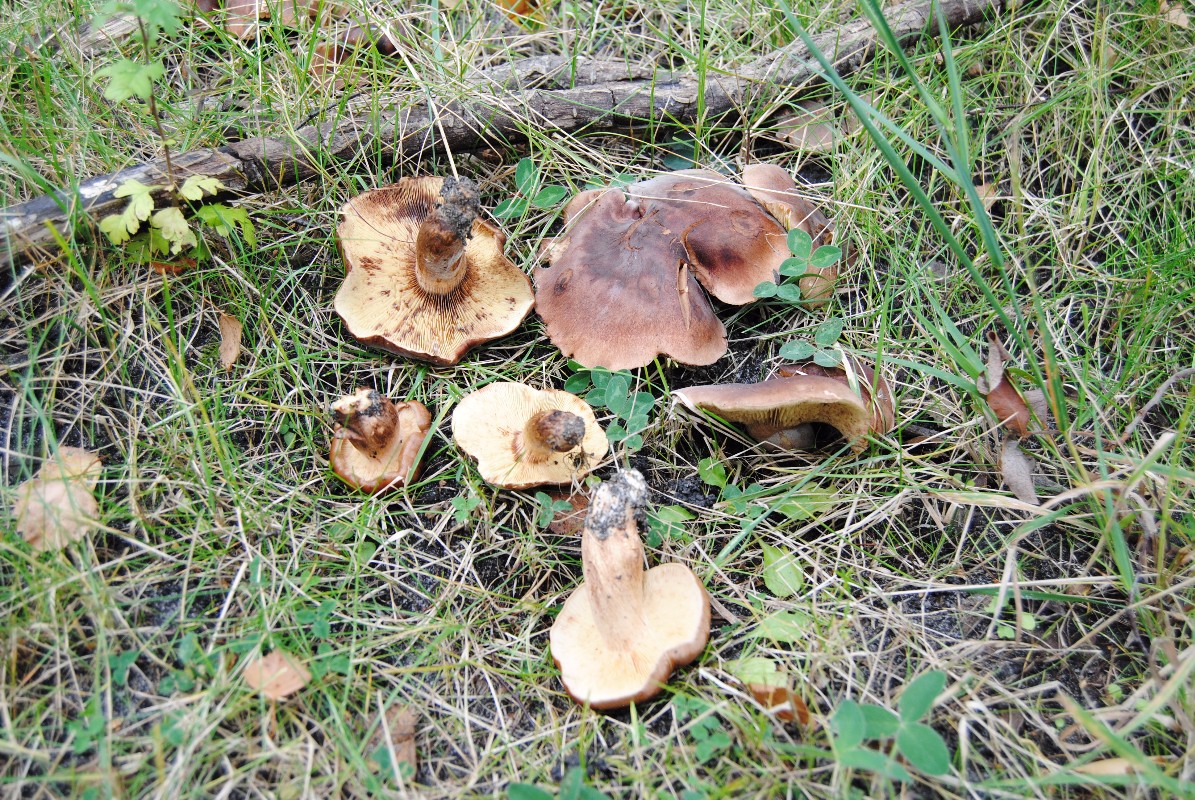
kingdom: Fungi
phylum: Basidiomycota
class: Agaricomycetes
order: Agaricales
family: Tricholomataceae
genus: Tricholoma
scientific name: Tricholoma fulvum
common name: birke-ridderhat
